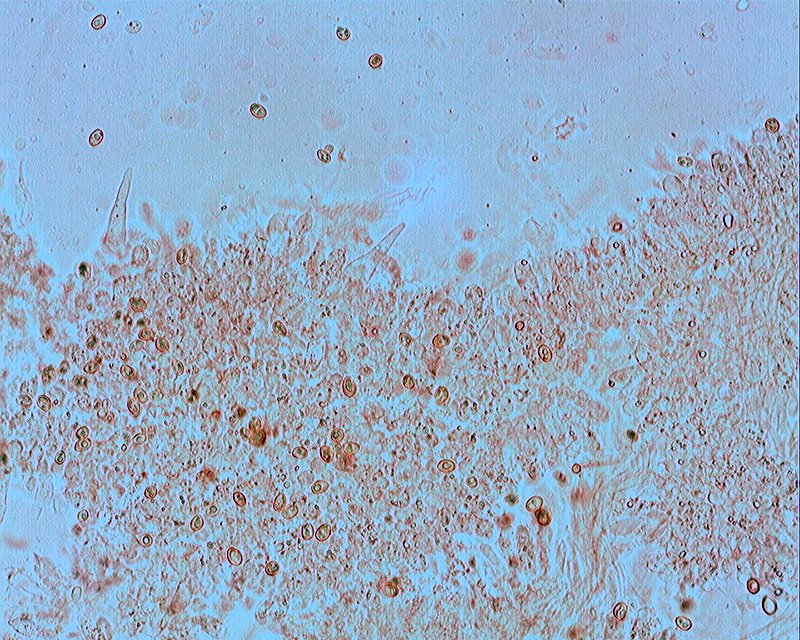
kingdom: Fungi
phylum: Basidiomycota
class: Agaricomycetes
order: Agaricales
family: Hymenogastraceae
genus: Galerina
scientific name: Galerina vittiformis
